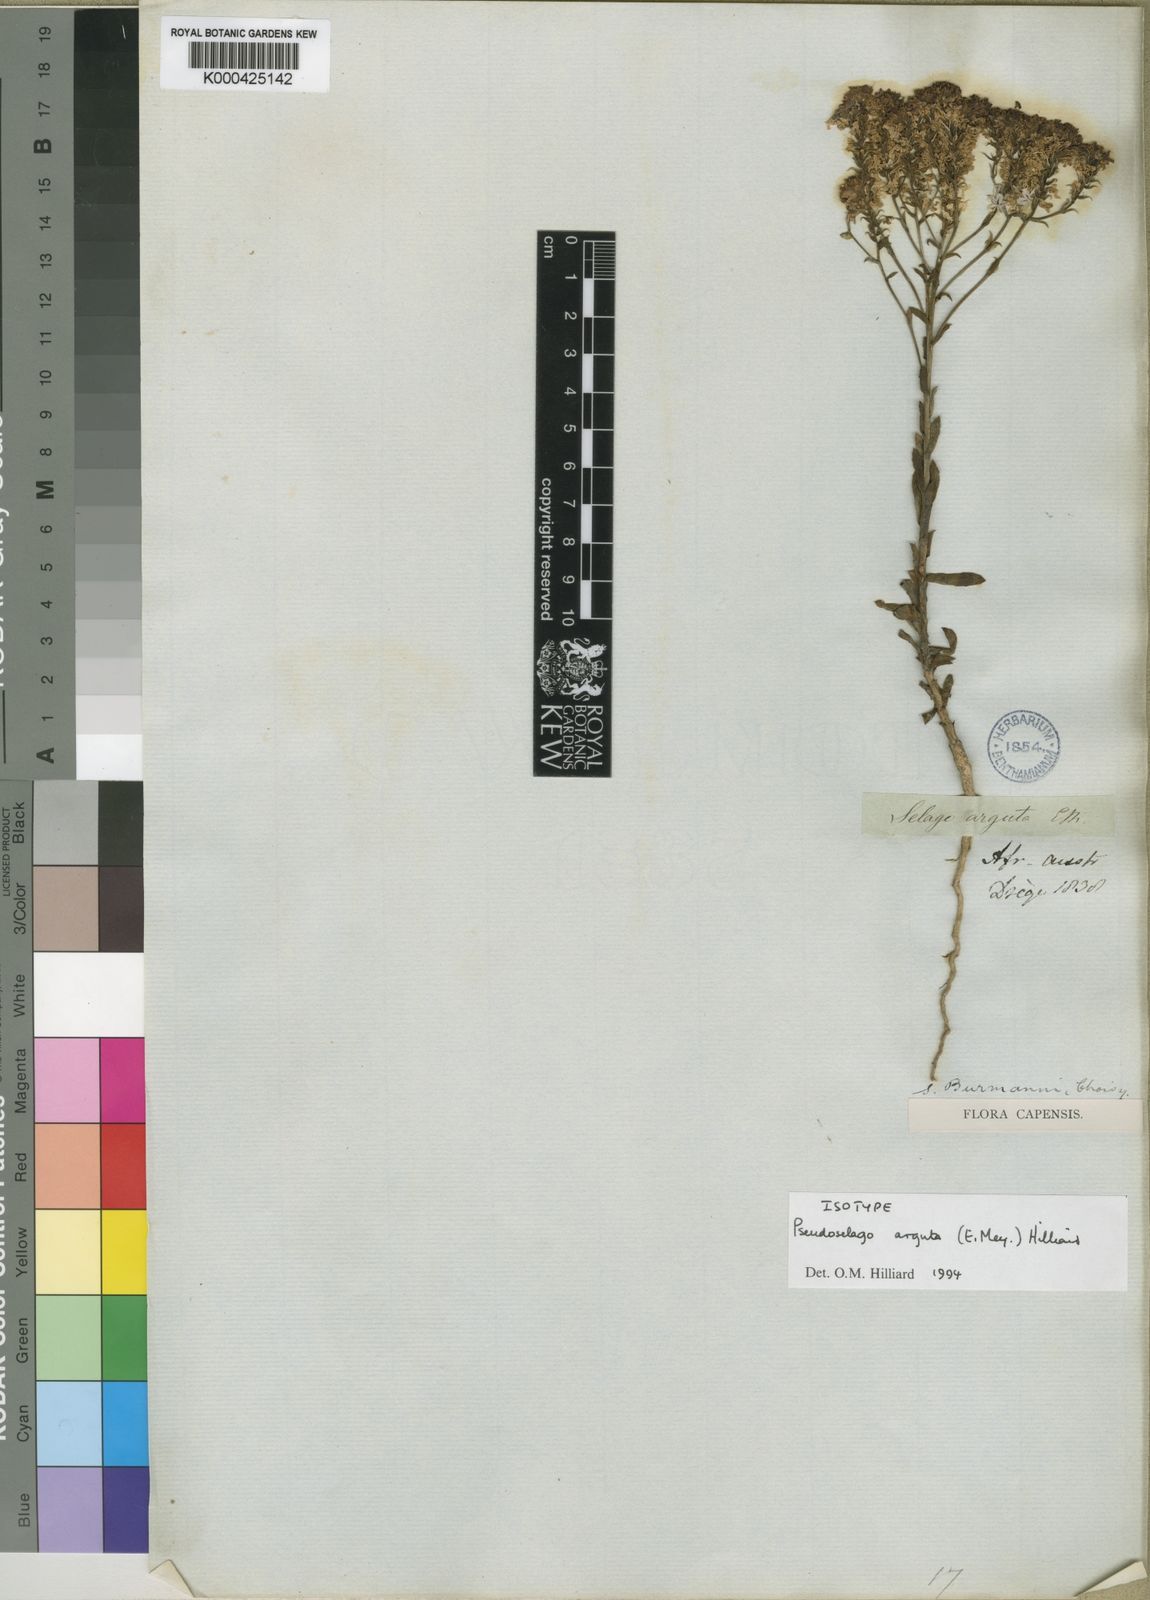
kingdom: Plantae
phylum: Tracheophyta
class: Magnoliopsida
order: Lamiales
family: Scrophulariaceae
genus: Pseudoselago
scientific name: Pseudoselago arguta
